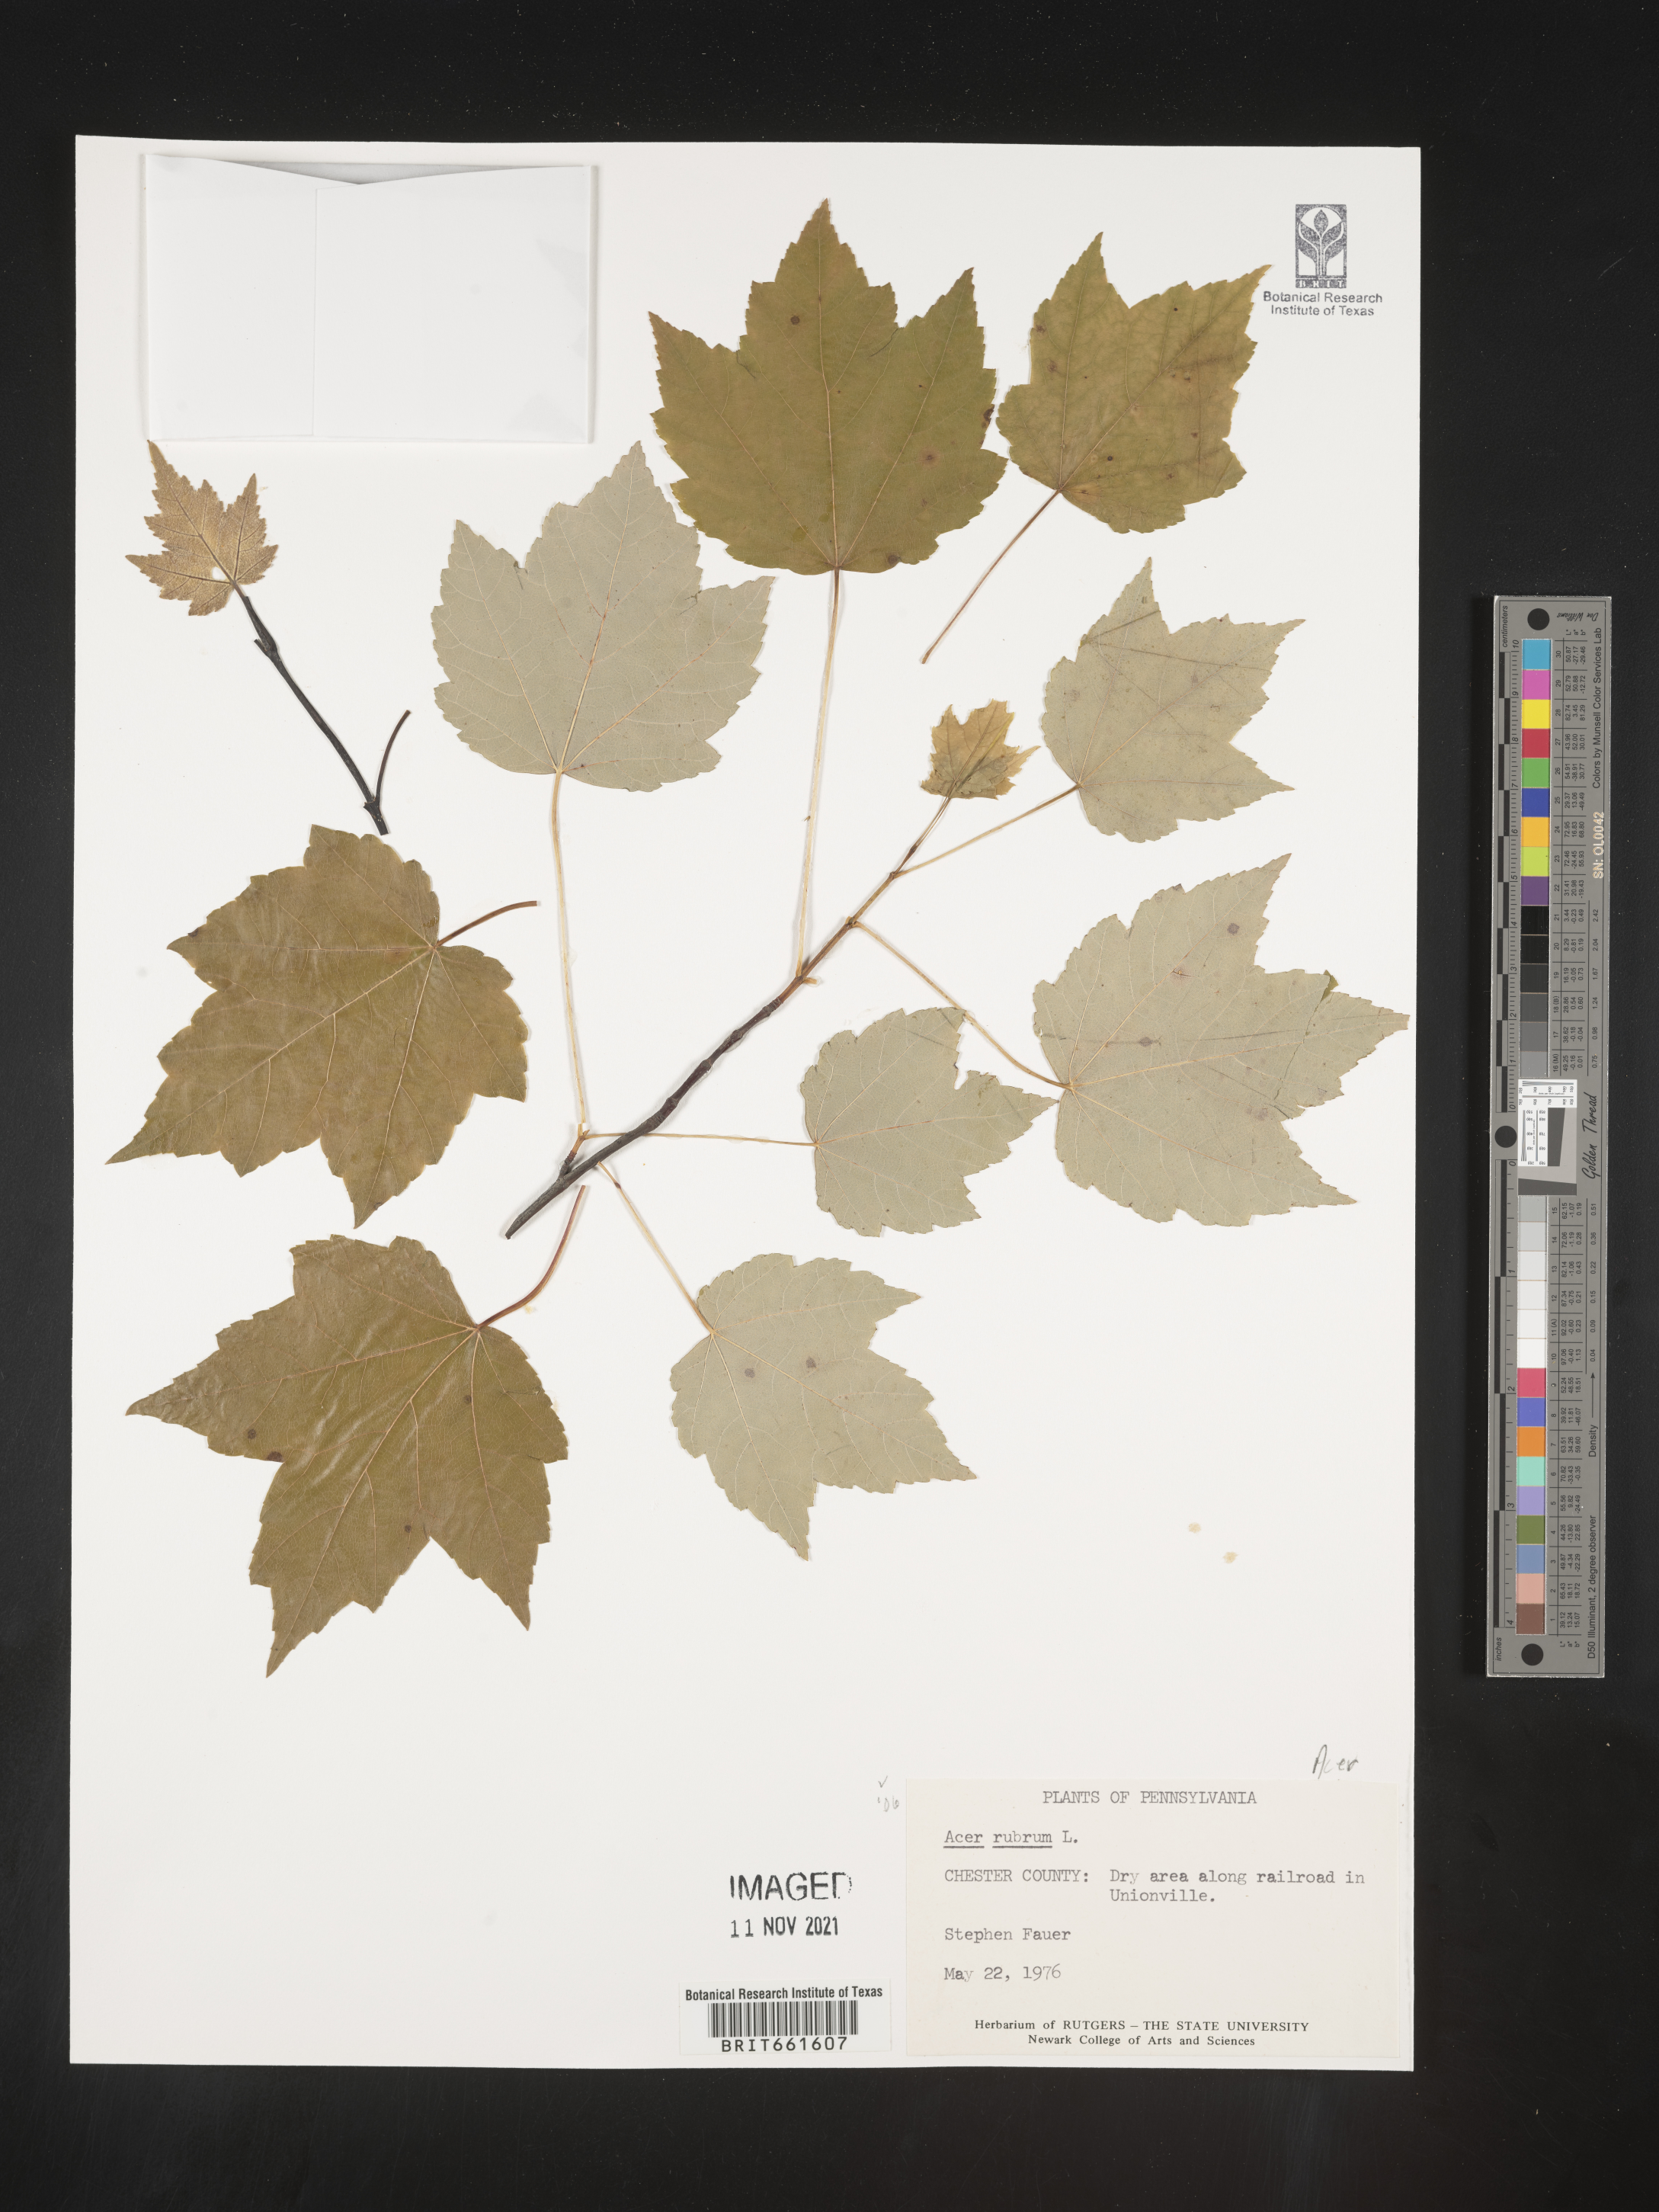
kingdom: Plantae
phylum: Tracheophyta
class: Magnoliopsida
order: Sapindales
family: Sapindaceae
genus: Acer
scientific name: Acer rubrum
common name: Red maple
